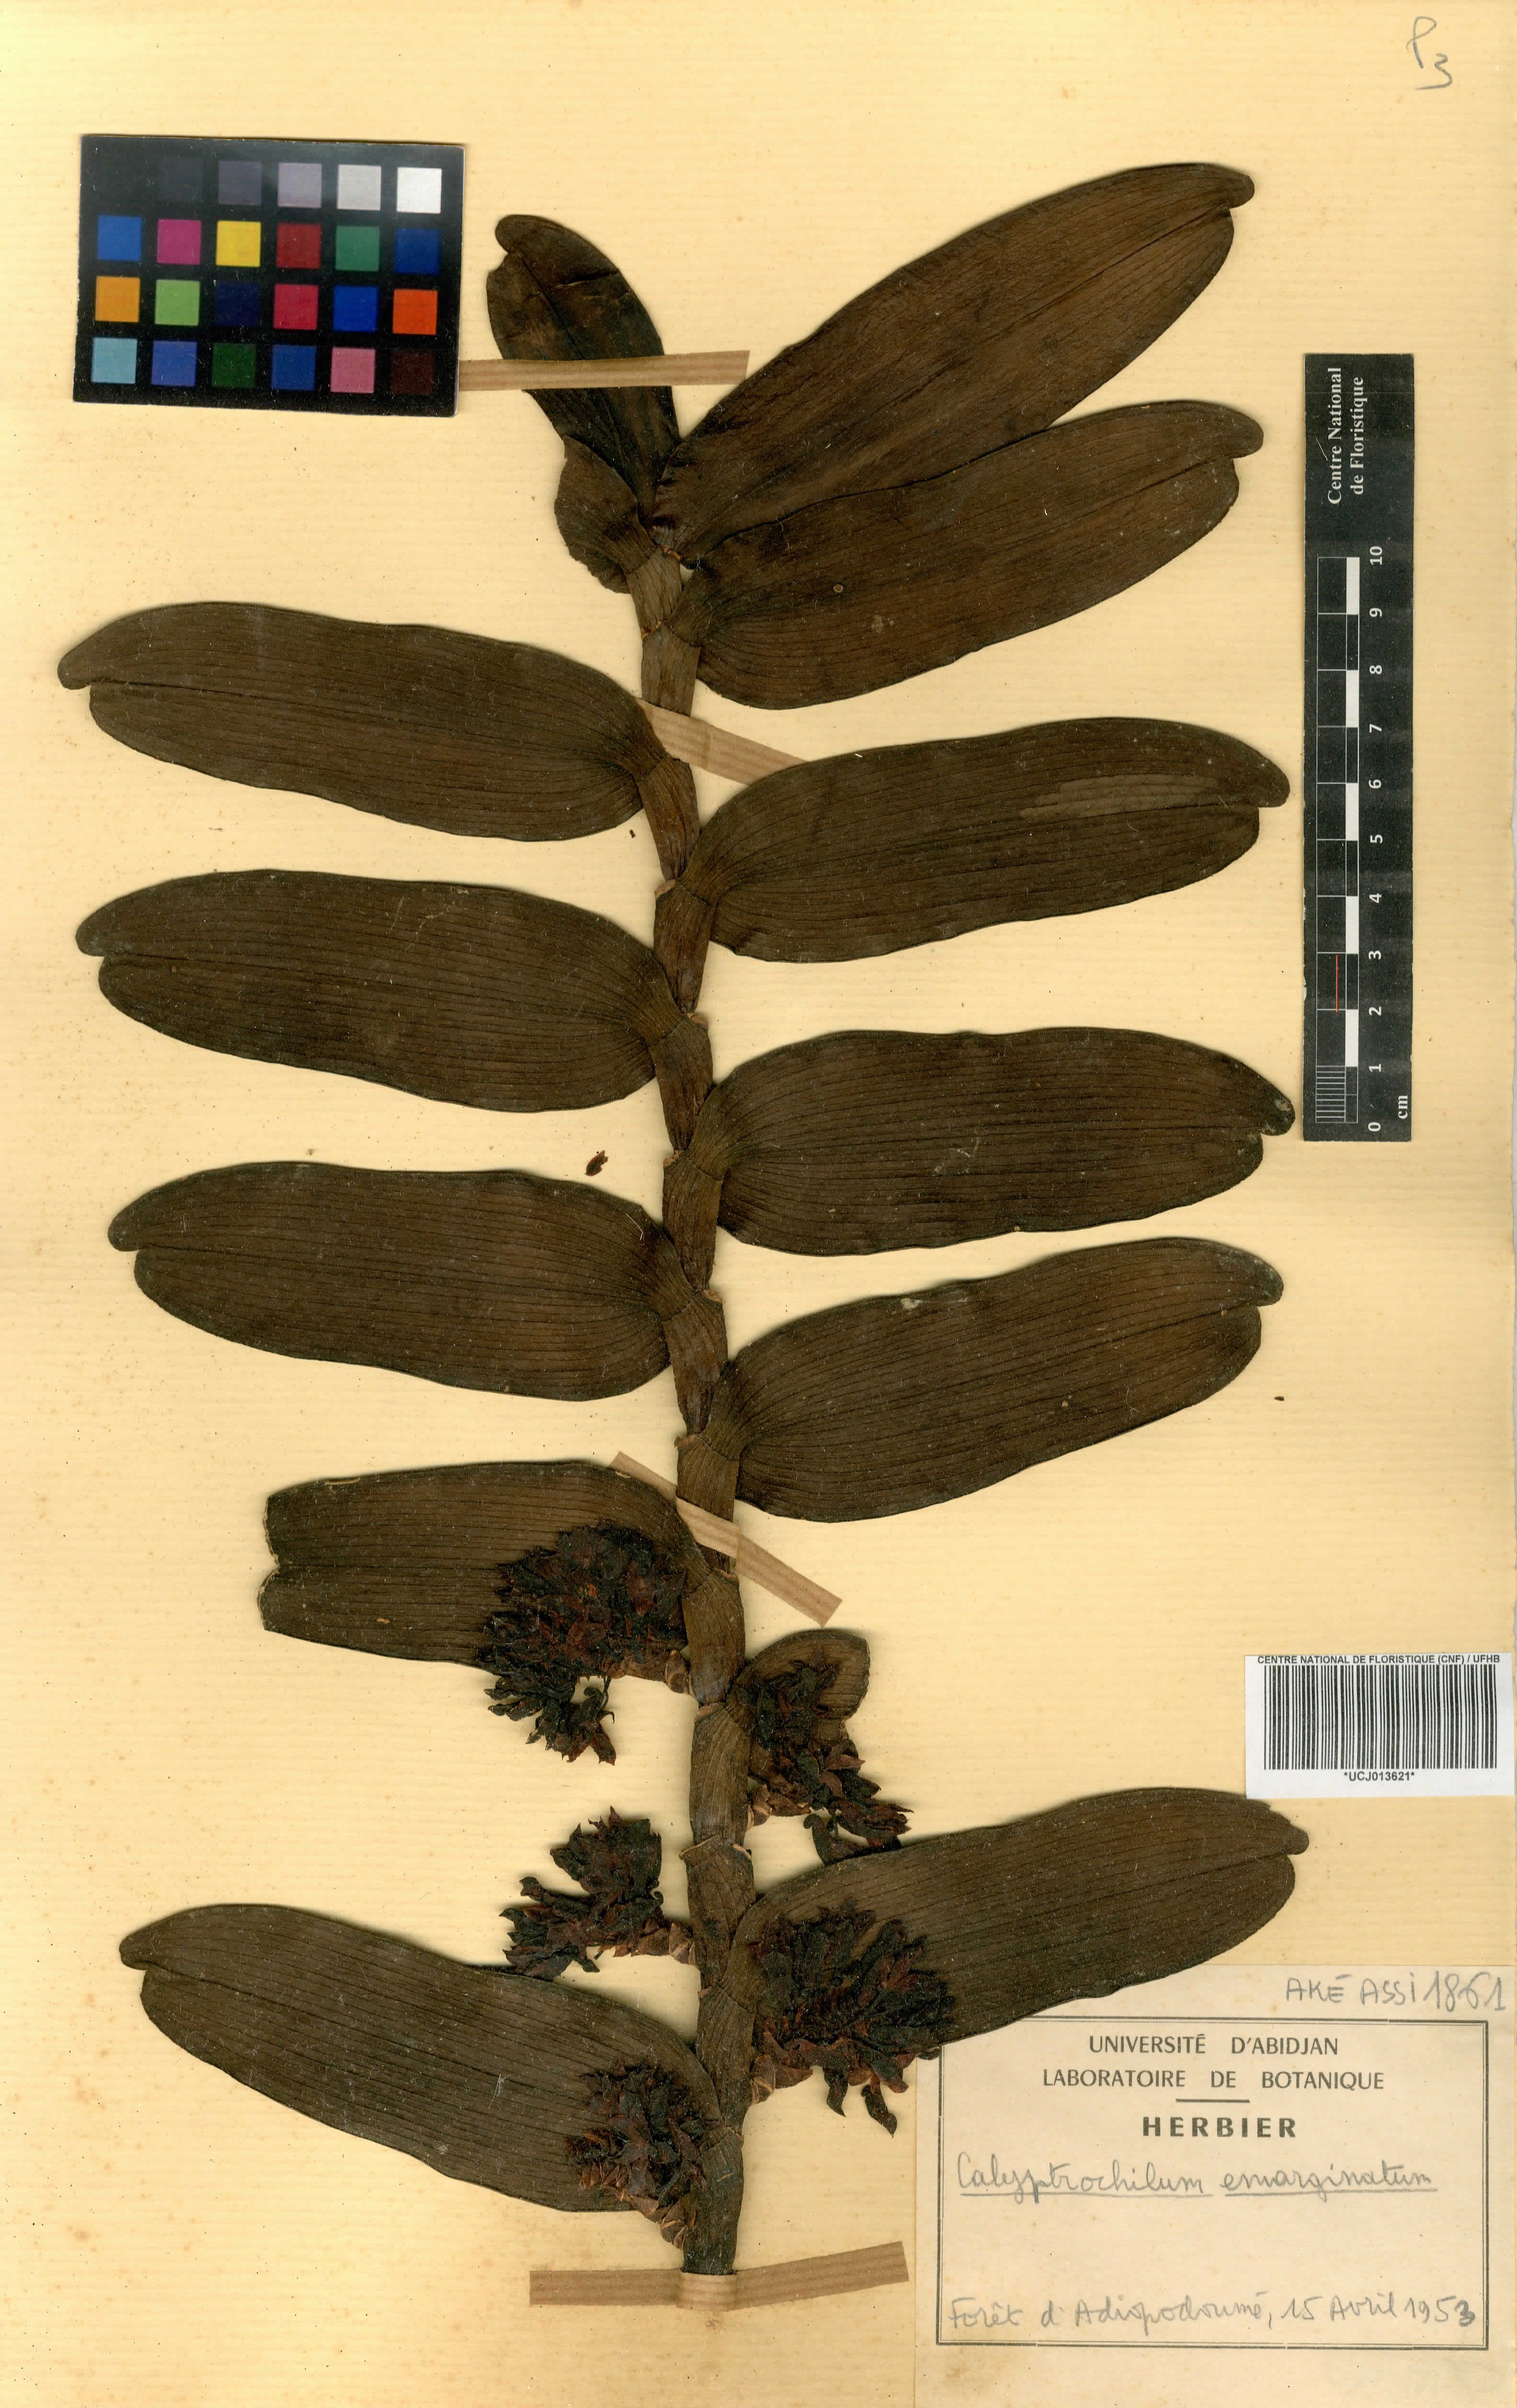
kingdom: Plantae
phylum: Tracheophyta
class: Liliopsida
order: Asparagales
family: Orchidaceae
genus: Calyptrochilum
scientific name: Calyptrochilum emarginatum
